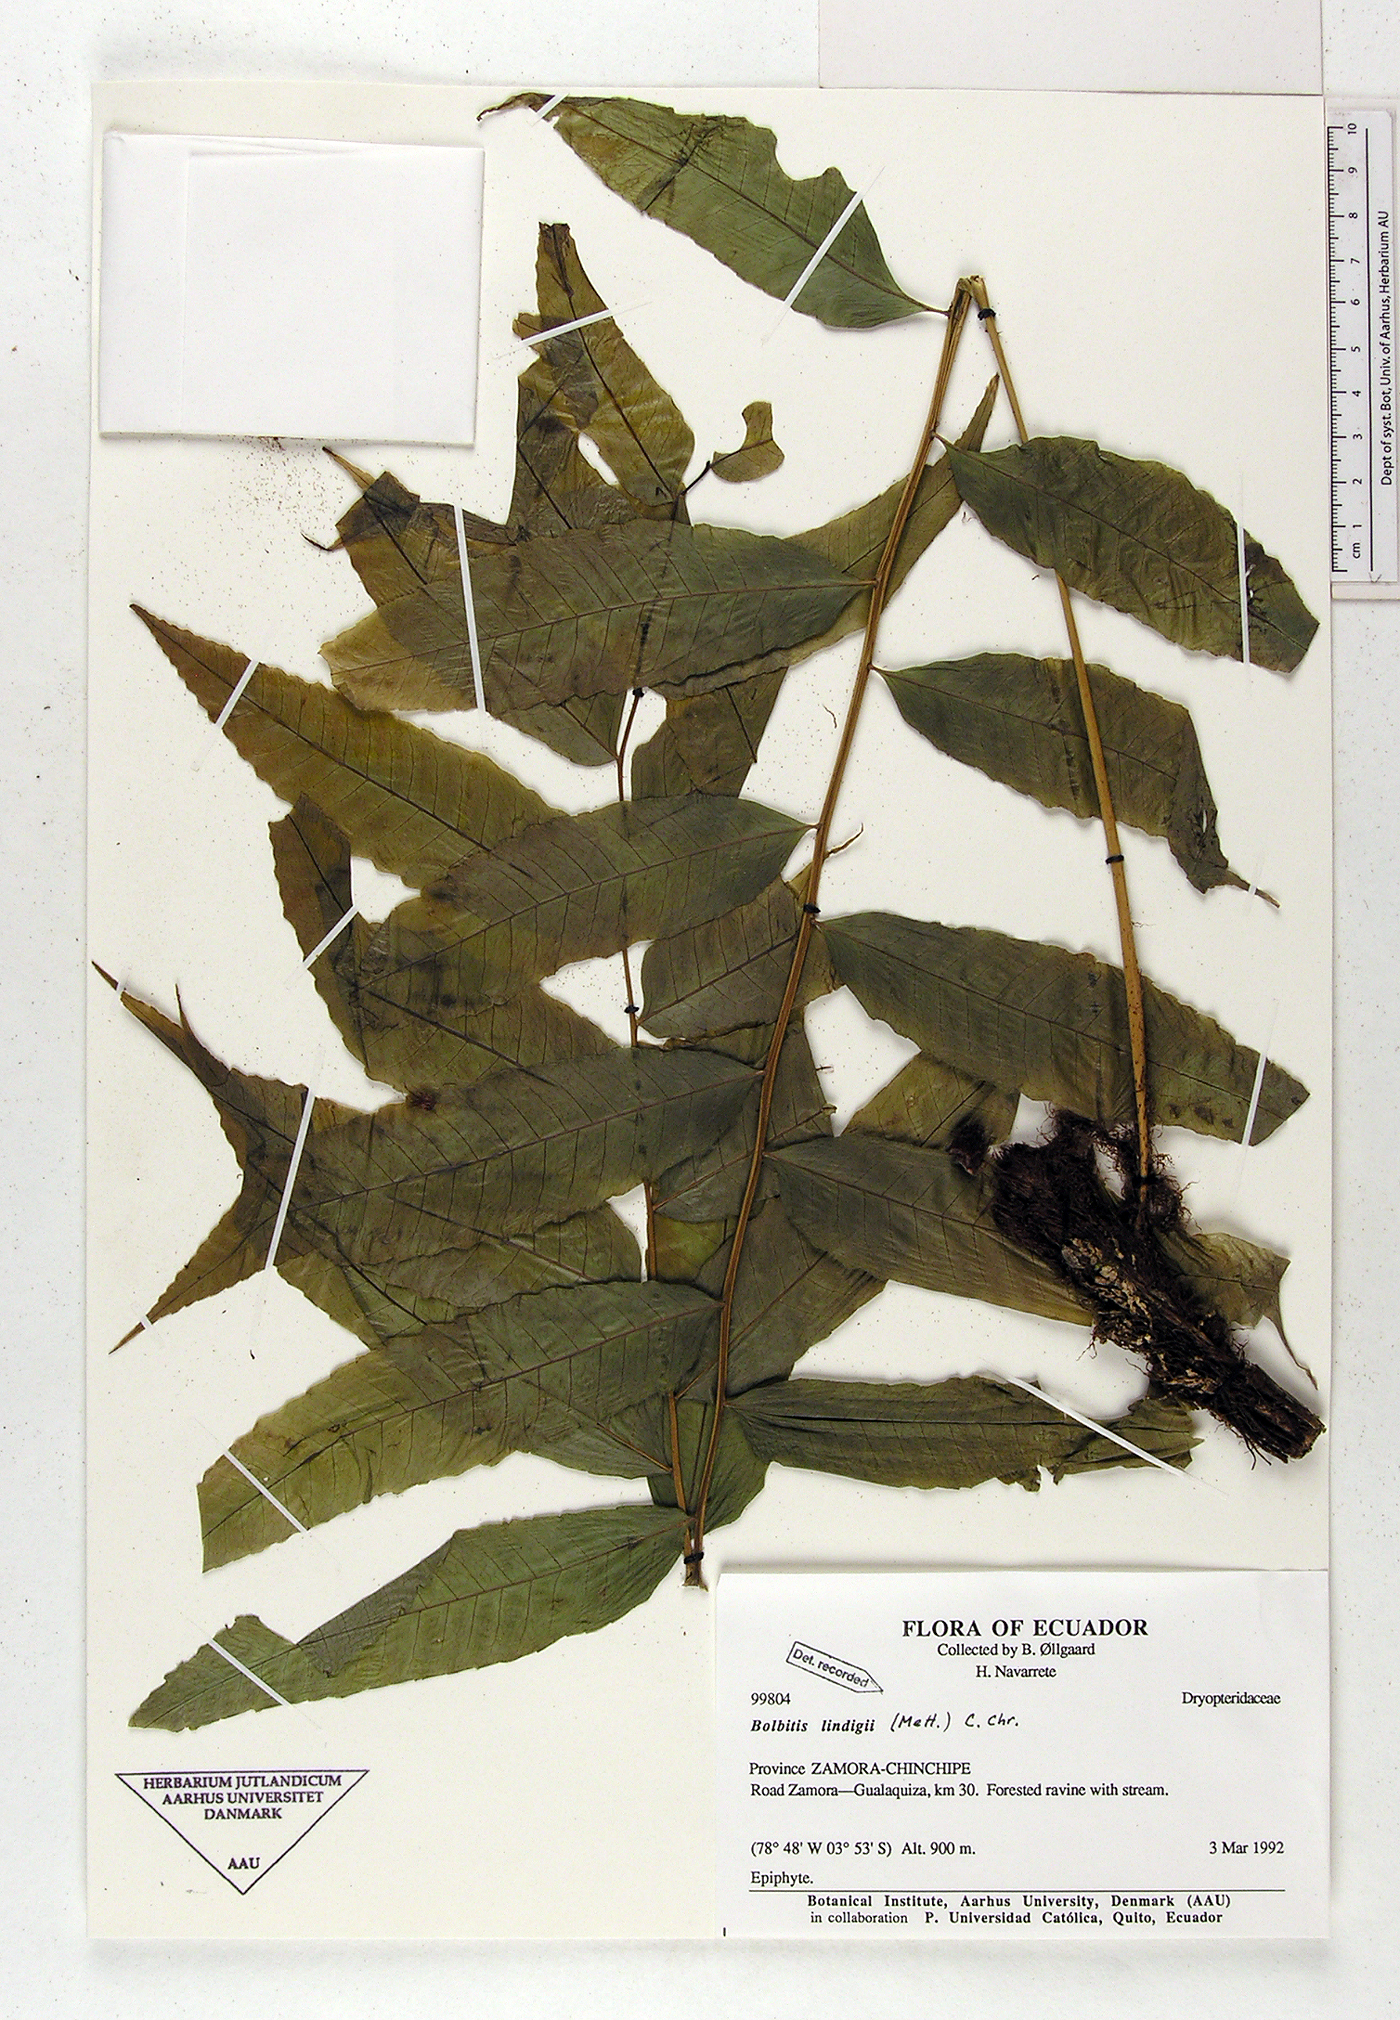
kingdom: Plantae
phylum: Tracheophyta
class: Polypodiopsida
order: Polypodiales
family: Dryopteridaceae
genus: Mickelia
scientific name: Mickelia lindigii
